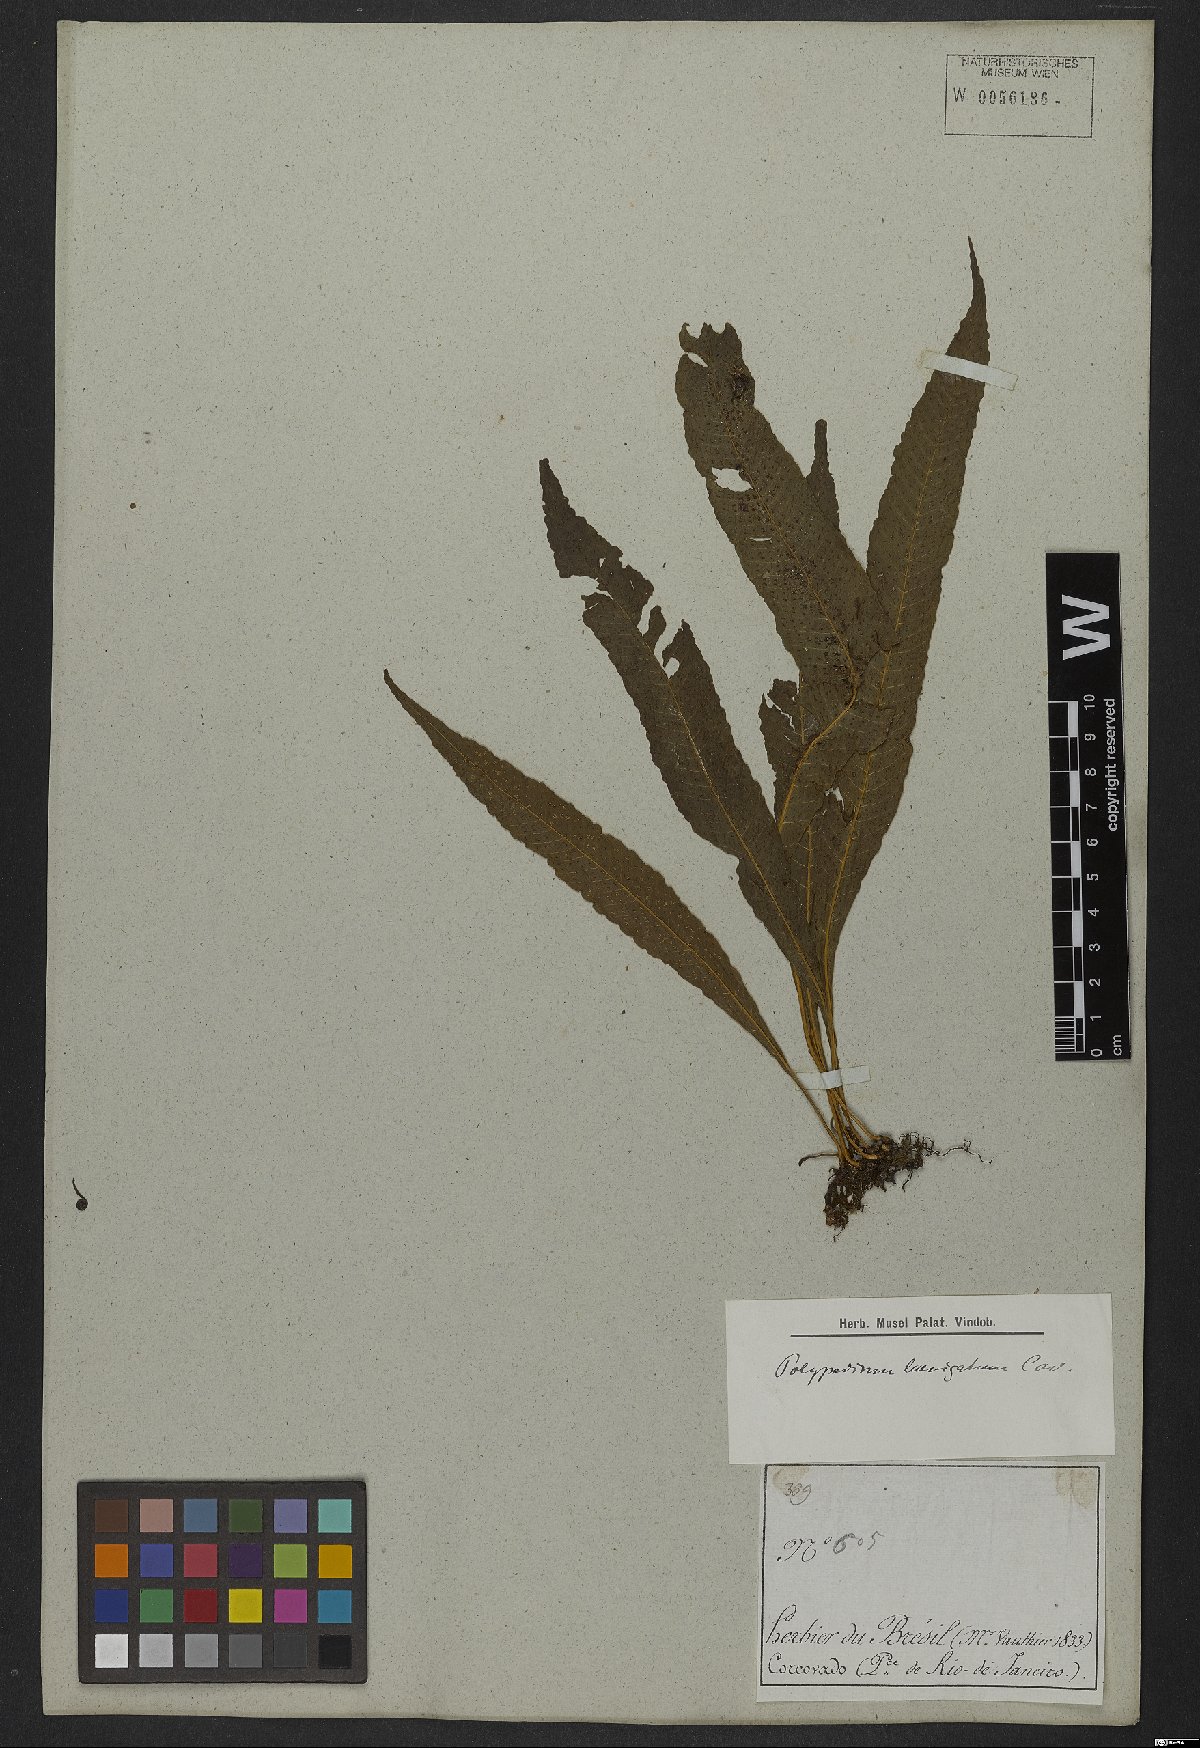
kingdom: Plantae
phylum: Tracheophyta
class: Polypodiopsida
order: Polypodiales
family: Polypodiaceae
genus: Serpocaulon
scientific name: Serpocaulon levigatum
